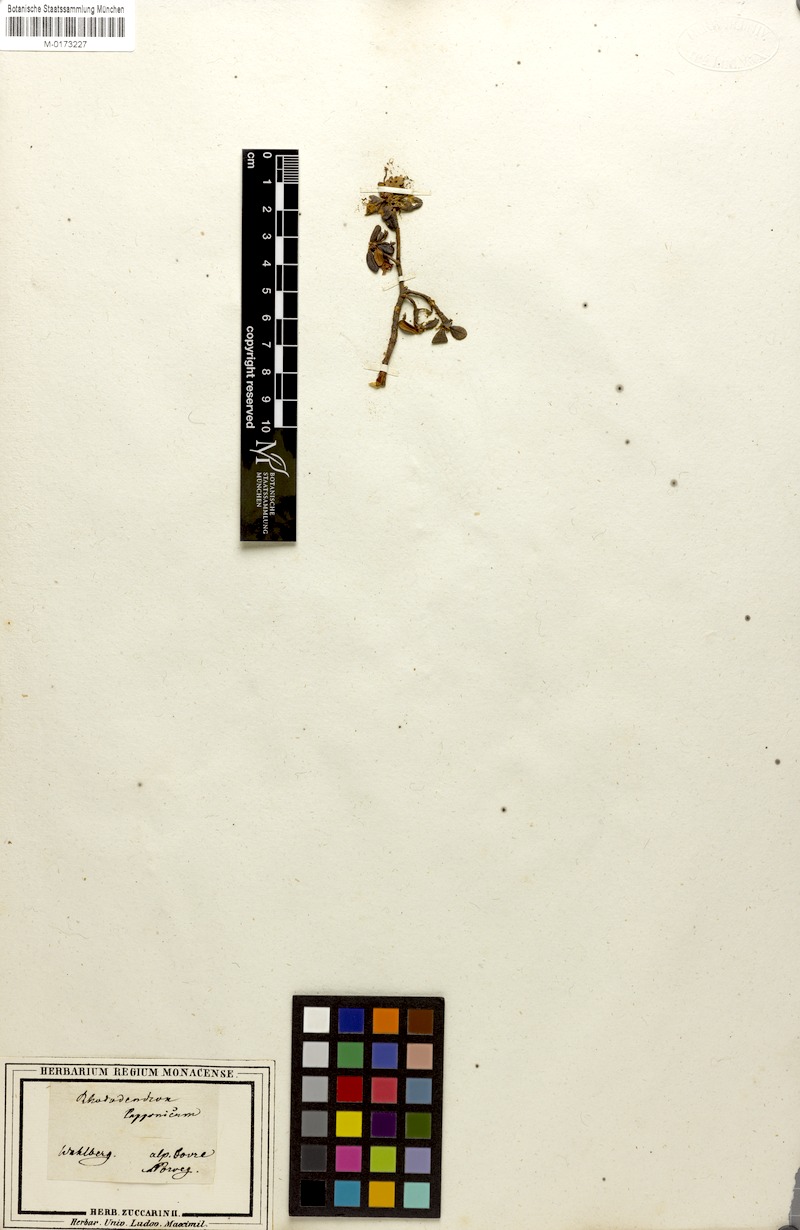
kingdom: Plantae
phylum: Tracheophyta
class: Magnoliopsida
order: Ericales
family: Ericaceae
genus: Rhododendron
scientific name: Rhododendron lapponicum
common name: Lapland rhododendron
